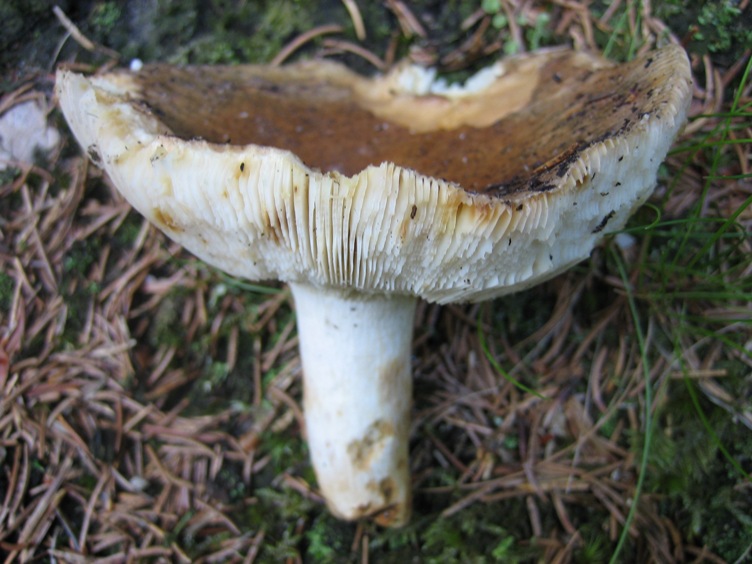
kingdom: Fungi
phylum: Basidiomycota
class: Agaricomycetes
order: Russulales
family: Russulaceae
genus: Russula
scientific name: Russula vesca
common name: spiselig skørhat
